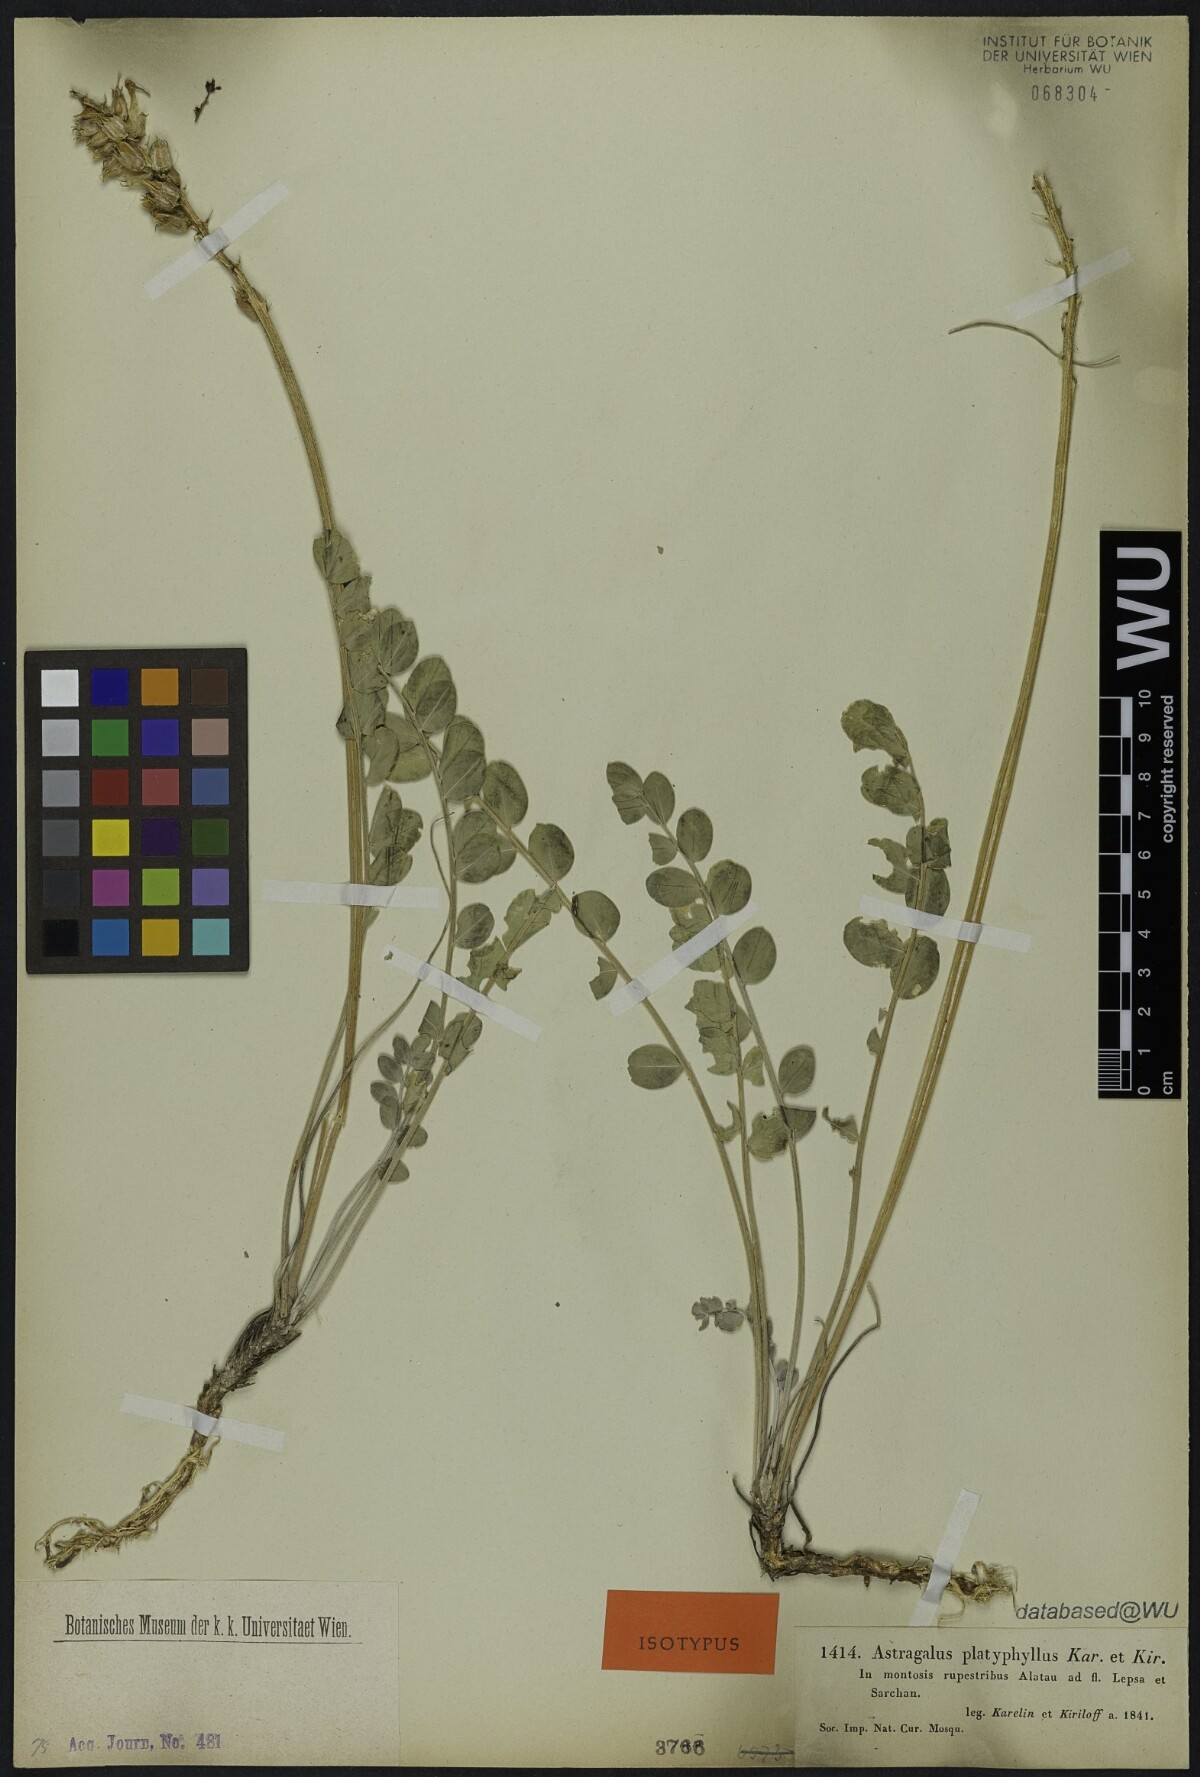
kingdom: Plantae
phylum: Tracheophyta
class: Magnoliopsida
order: Fabales
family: Fabaceae
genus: Astragalus
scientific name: Astragalus platyphyllus
